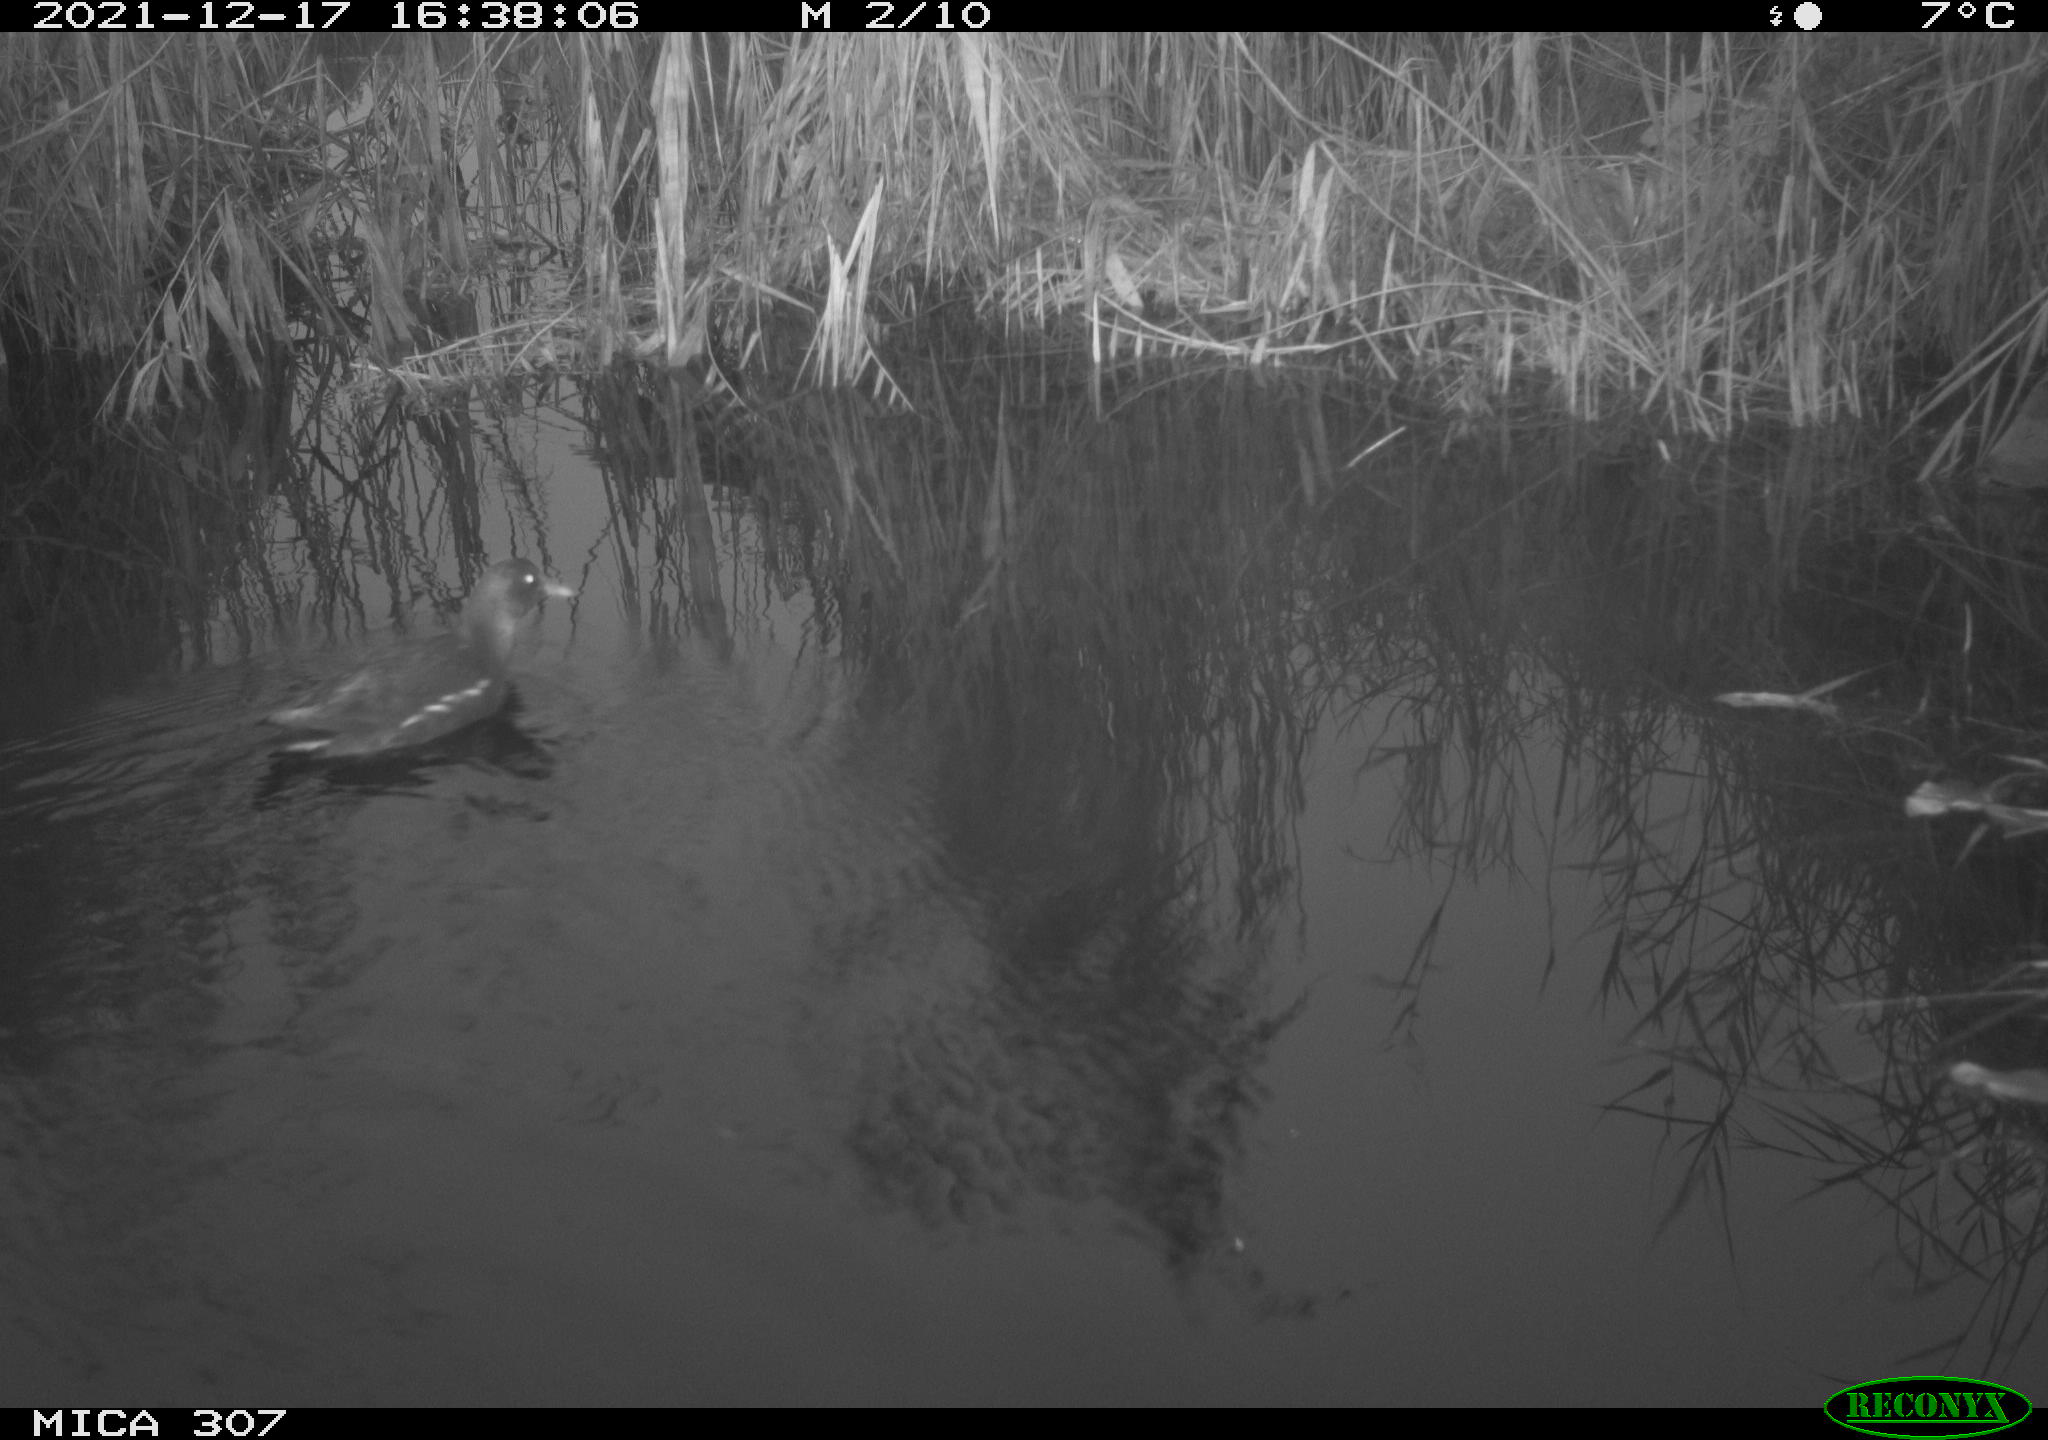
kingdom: Animalia
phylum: Chordata
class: Aves
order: Gruiformes
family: Rallidae
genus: Gallinula
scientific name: Gallinula chloropus
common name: Common moorhen
